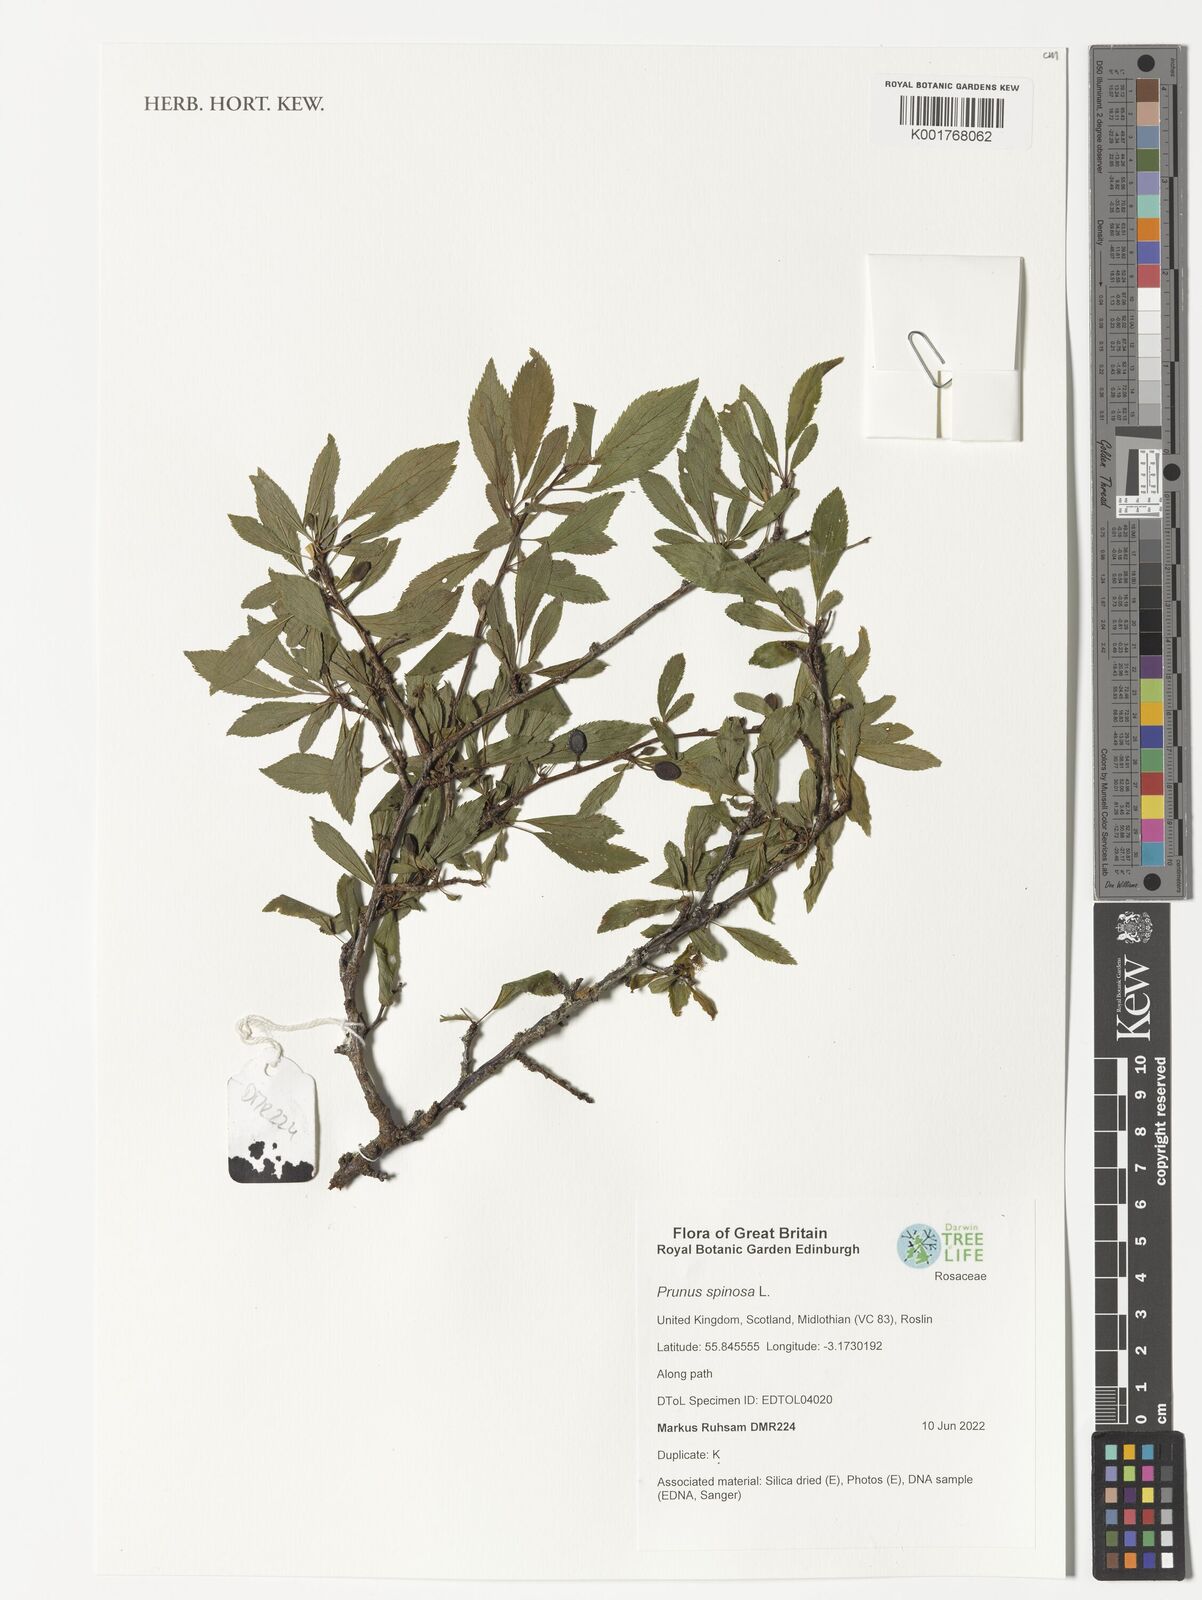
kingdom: Plantae
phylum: Tracheophyta
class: Magnoliopsida
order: Rosales
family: Rosaceae
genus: Prunus
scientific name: Prunus spinosa
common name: Blackthorn
